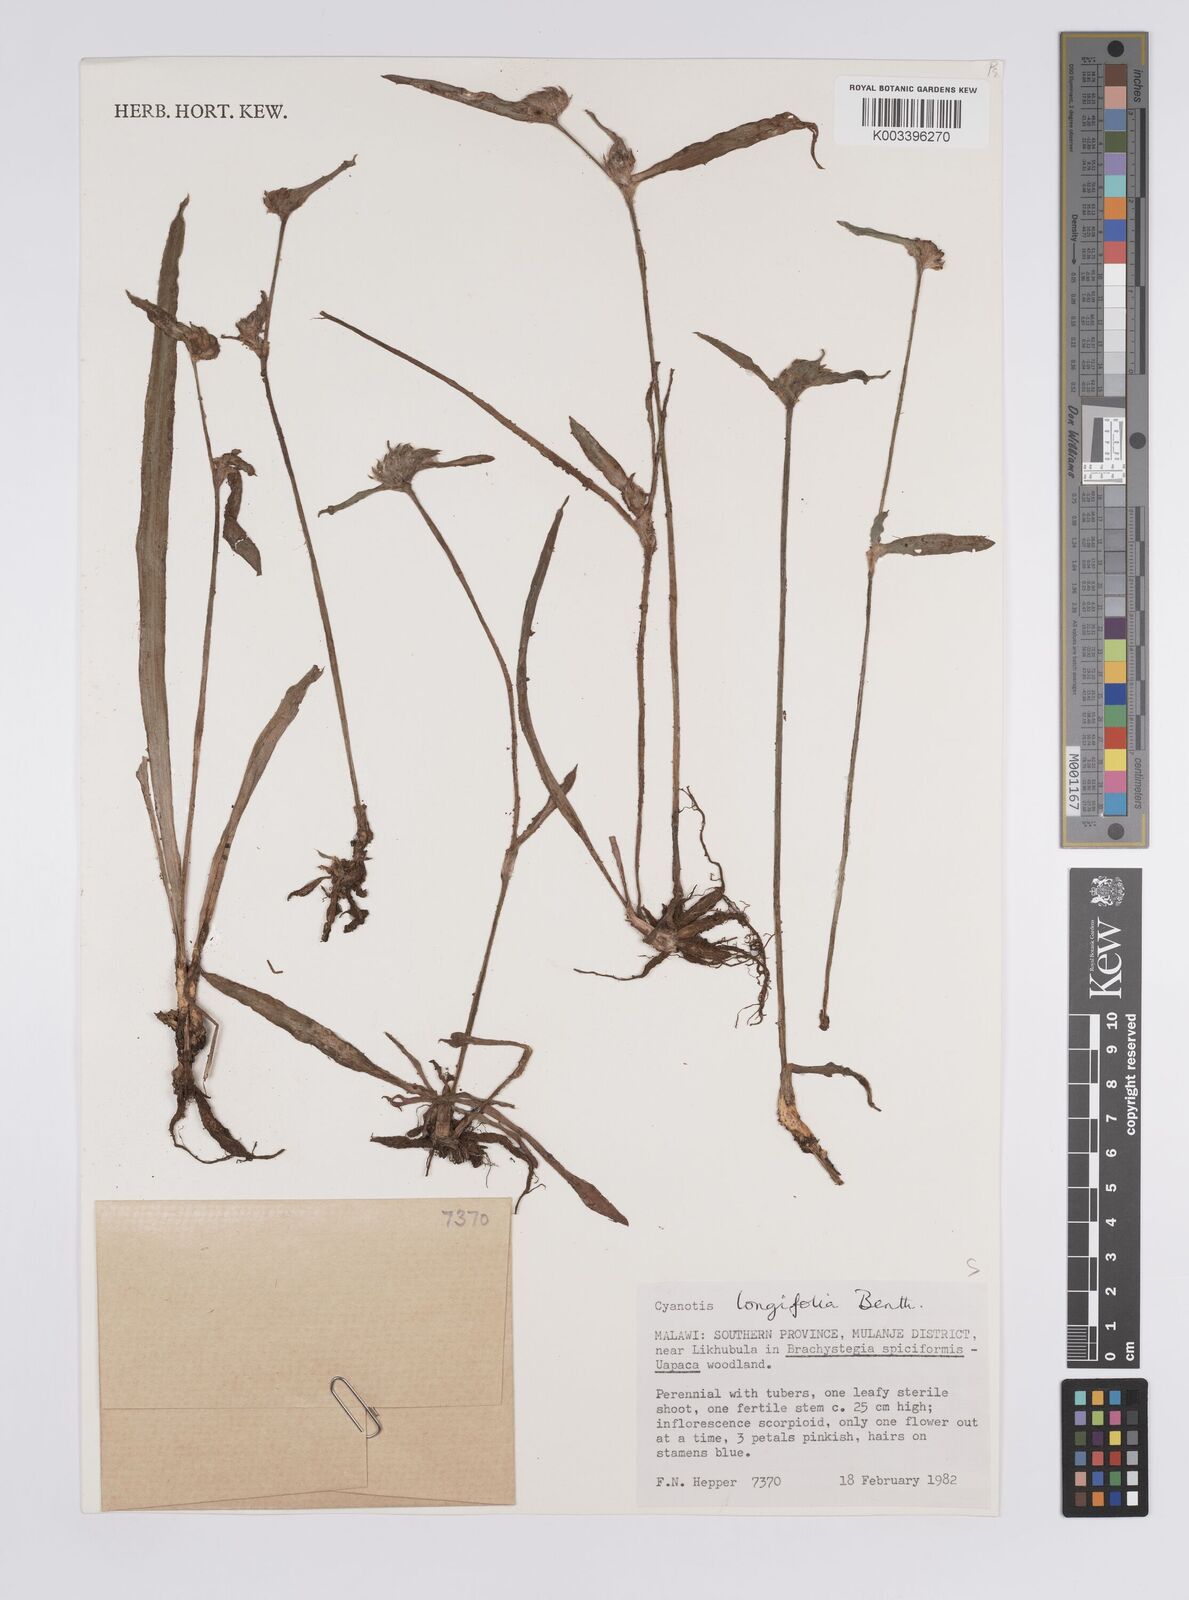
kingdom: Plantae
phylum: Tracheophyta
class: Liliopsida
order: Commelinales
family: Commelinaceae
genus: Cyanotis
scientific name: Cyanotis longifolia
